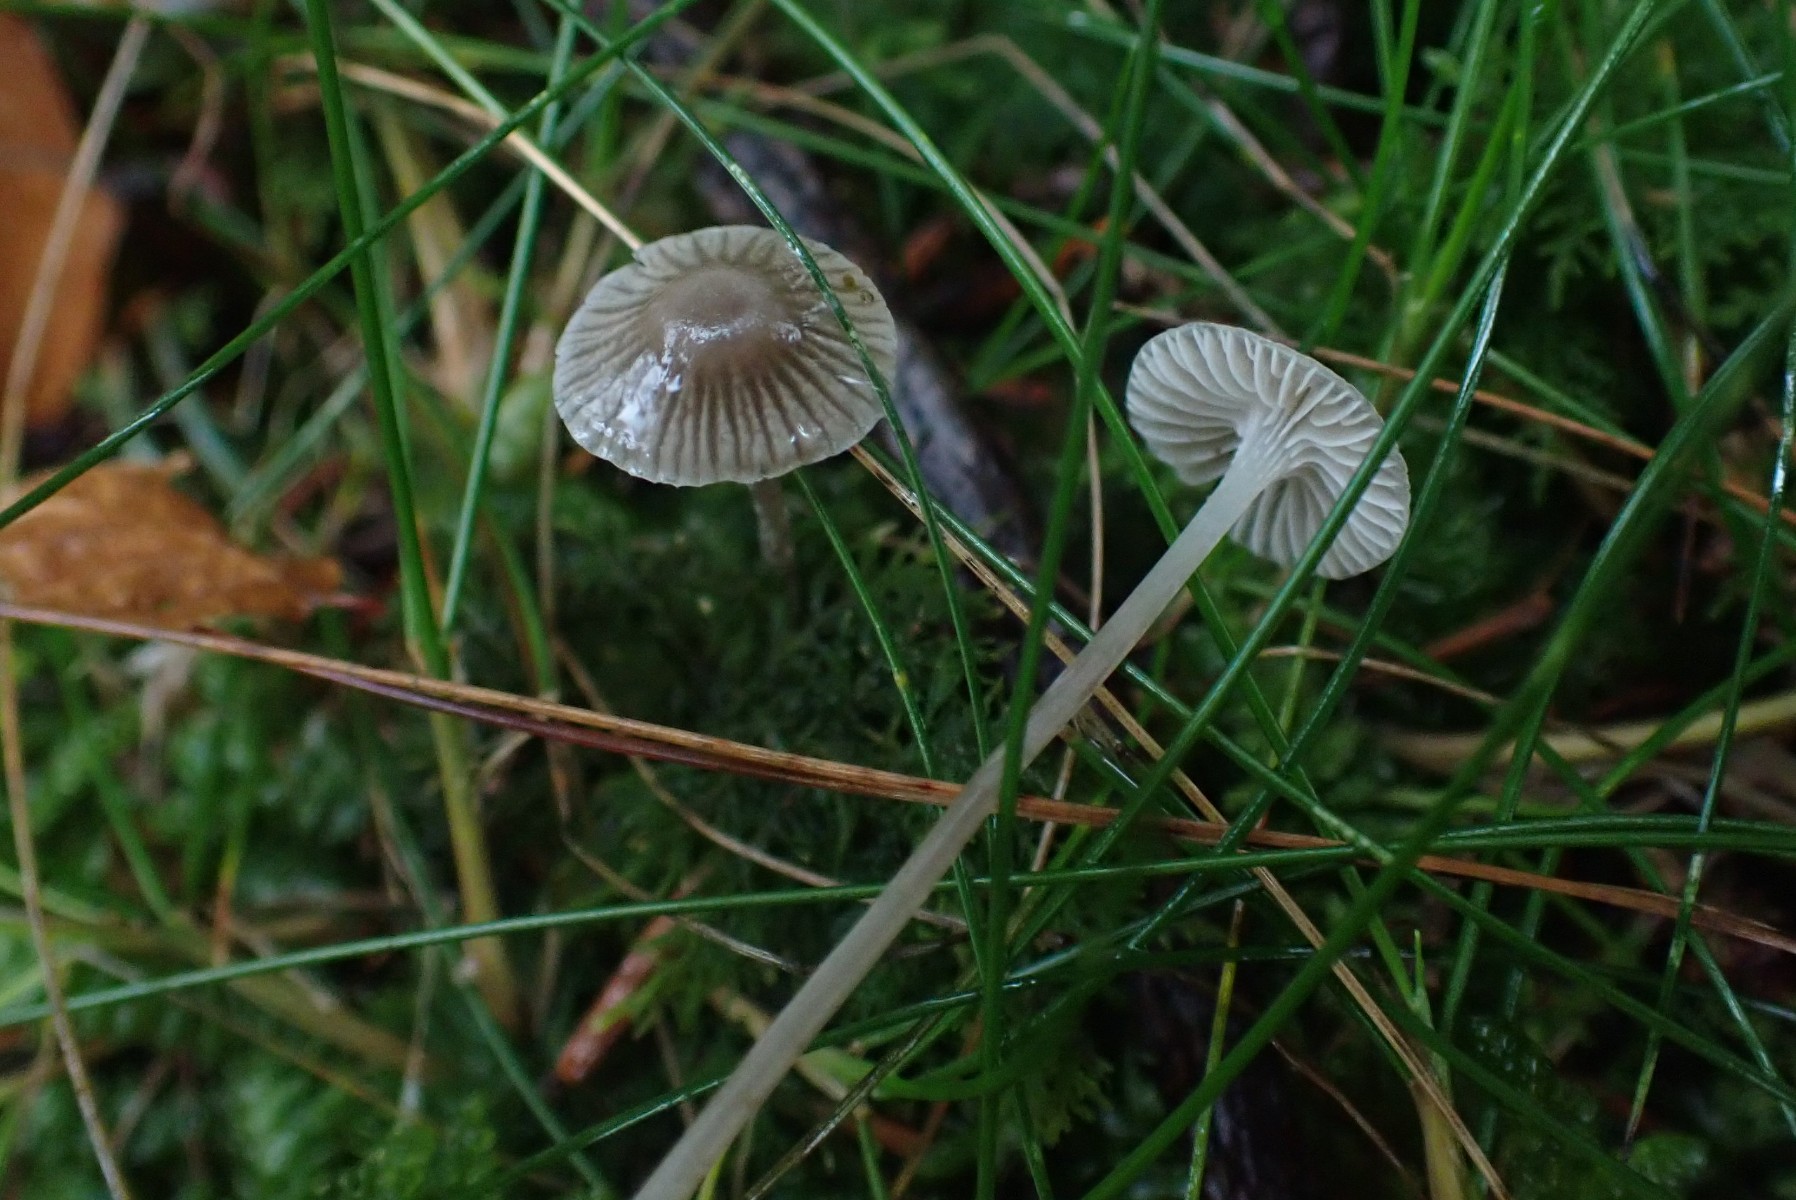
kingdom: Fungi
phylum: Basidiomycota
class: Agaricomycetes
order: Agaricales
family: Mycenaceae
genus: Mycena
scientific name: Mycena cinerella
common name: mel-huesvamp
